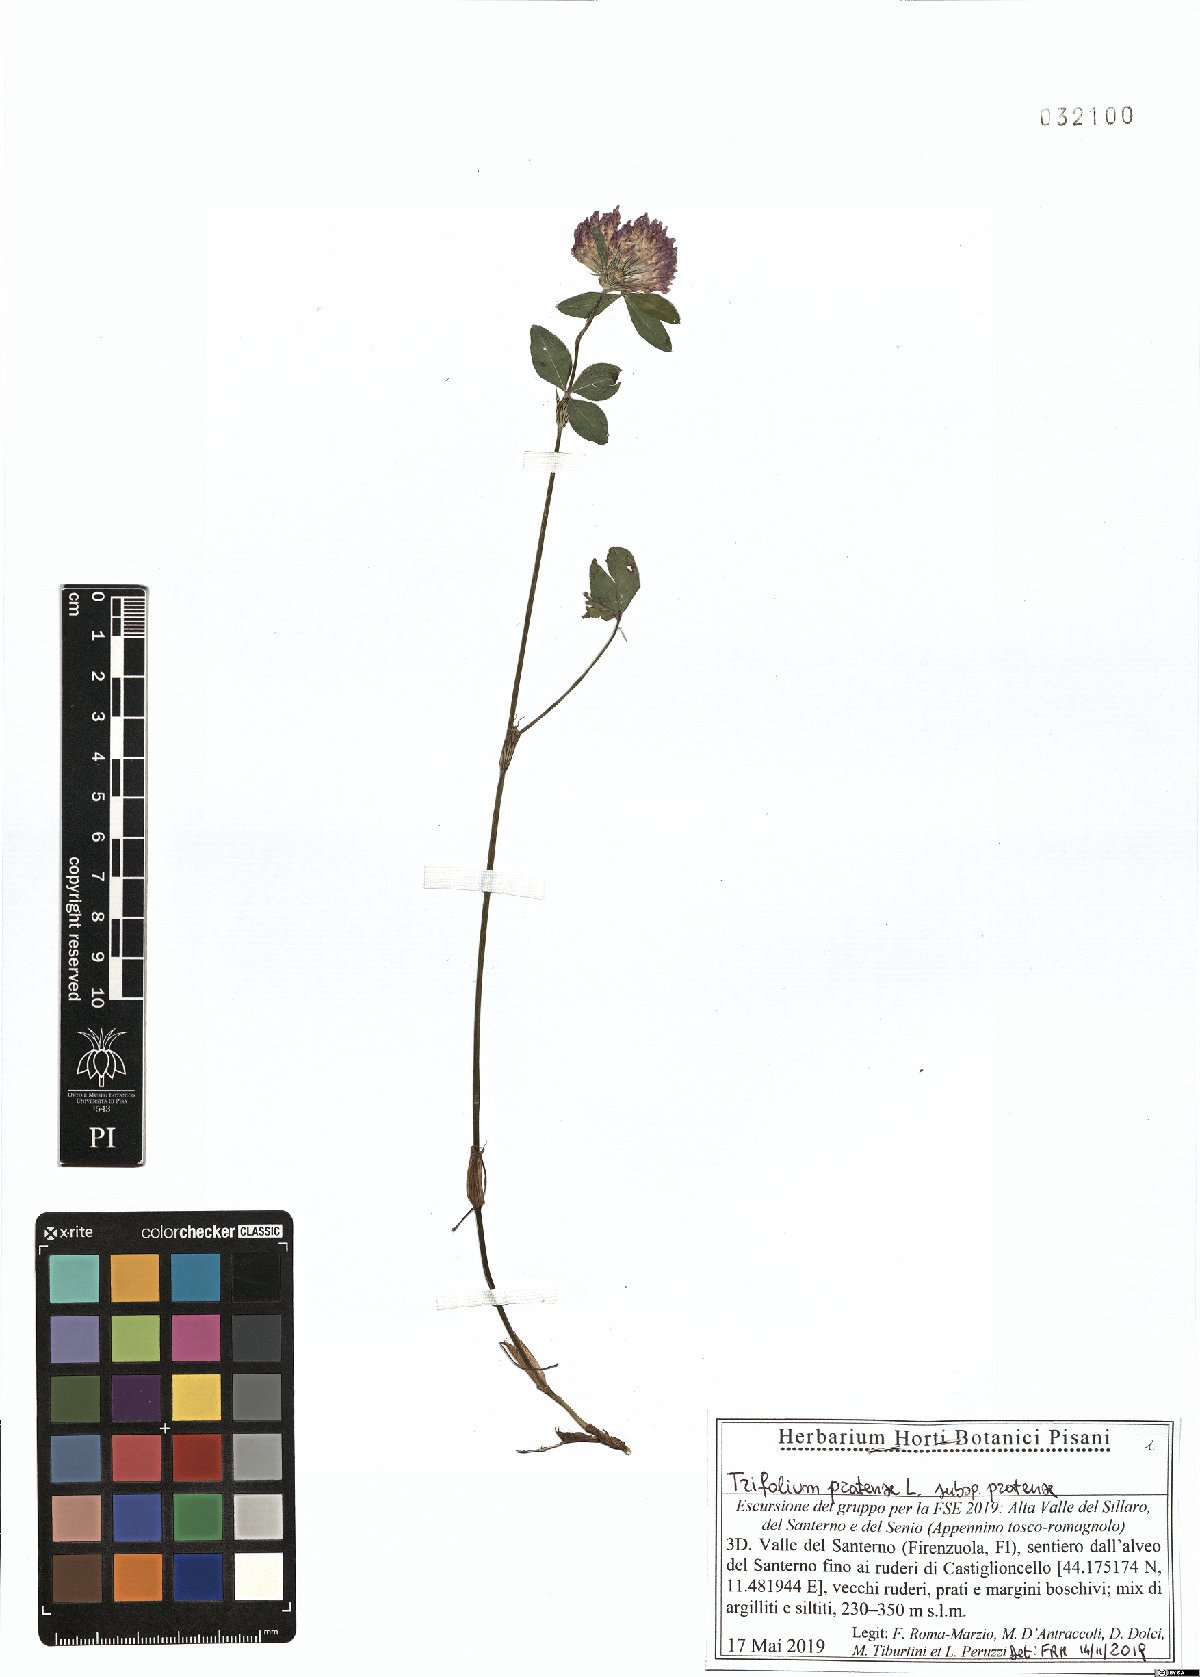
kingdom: Plantae
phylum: Tracheophyta
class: Magnoliopsida
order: Fabales
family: Fabaceae
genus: Trifolium
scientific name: Trifolium pratense
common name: Red clover
